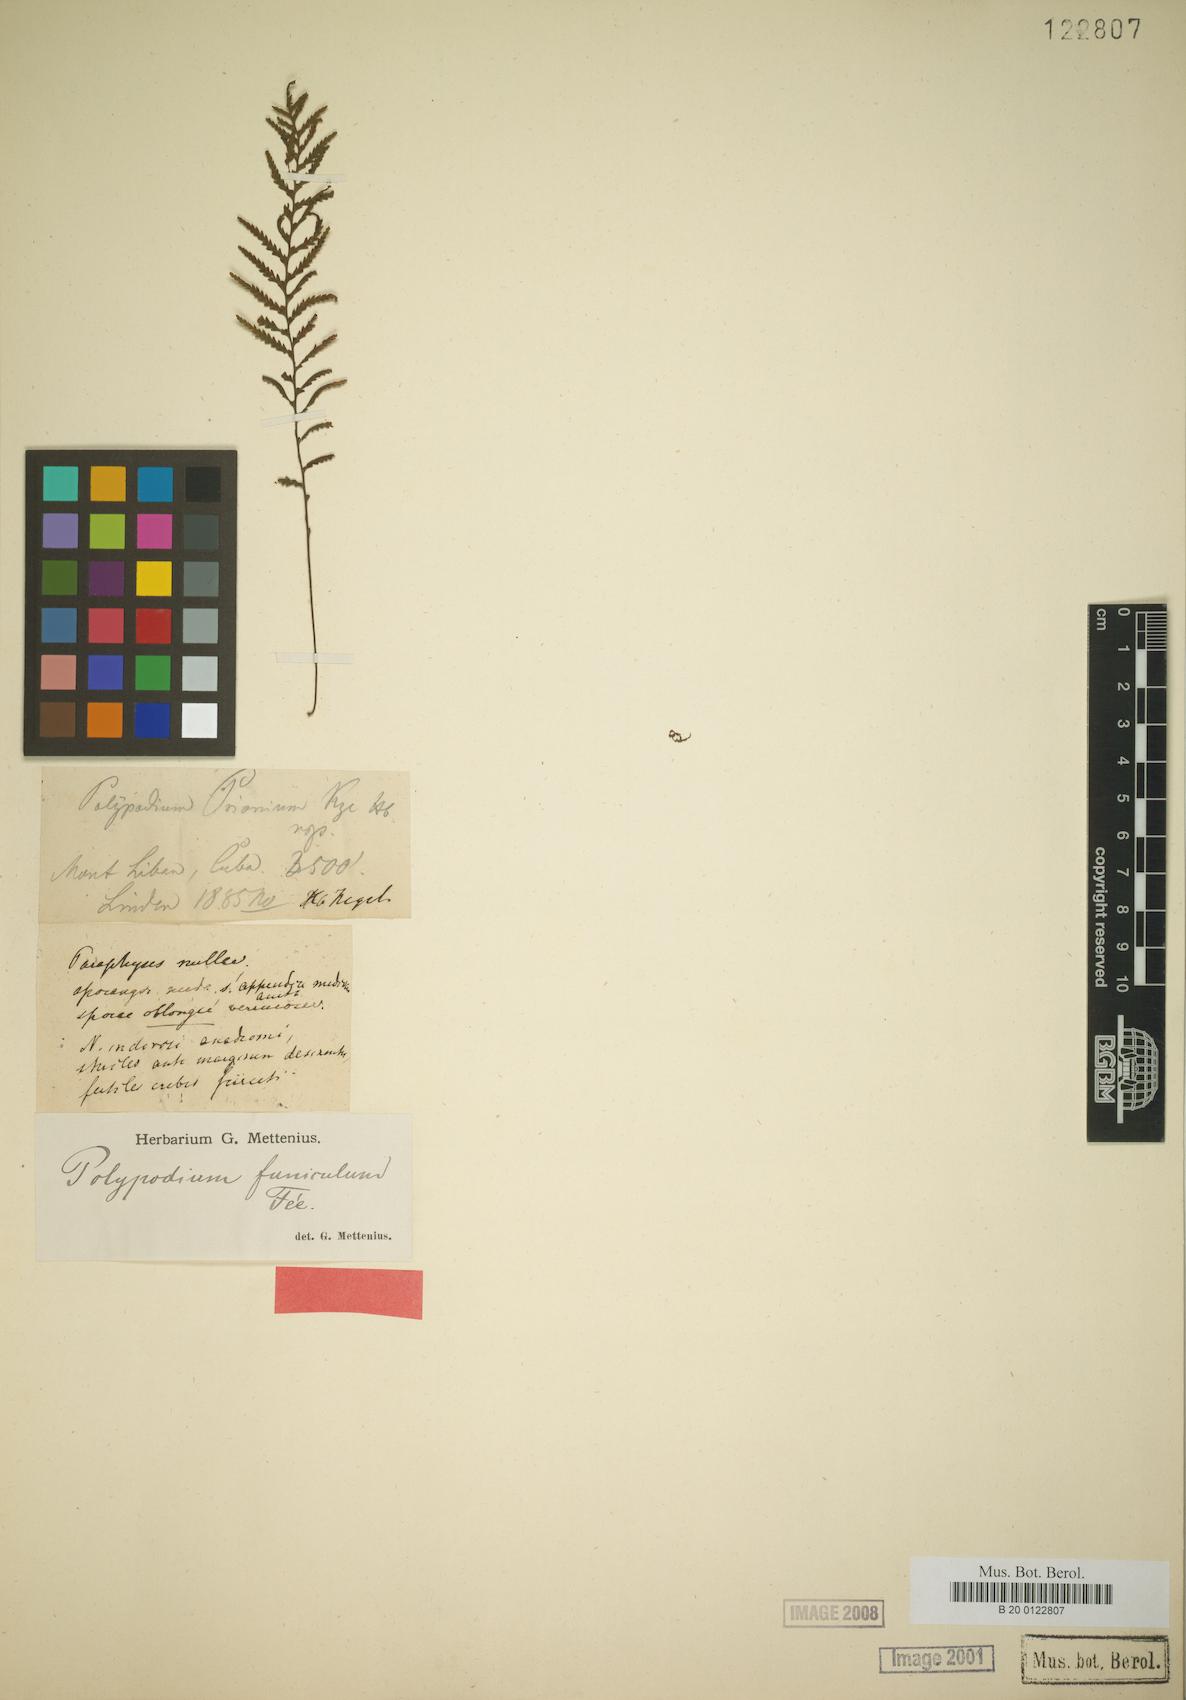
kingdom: Plantae
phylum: Tracheophyta
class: Polypodiopsida
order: Polypodiales
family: Polypodiaceae
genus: Pecluma
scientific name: Pecluma funicula
